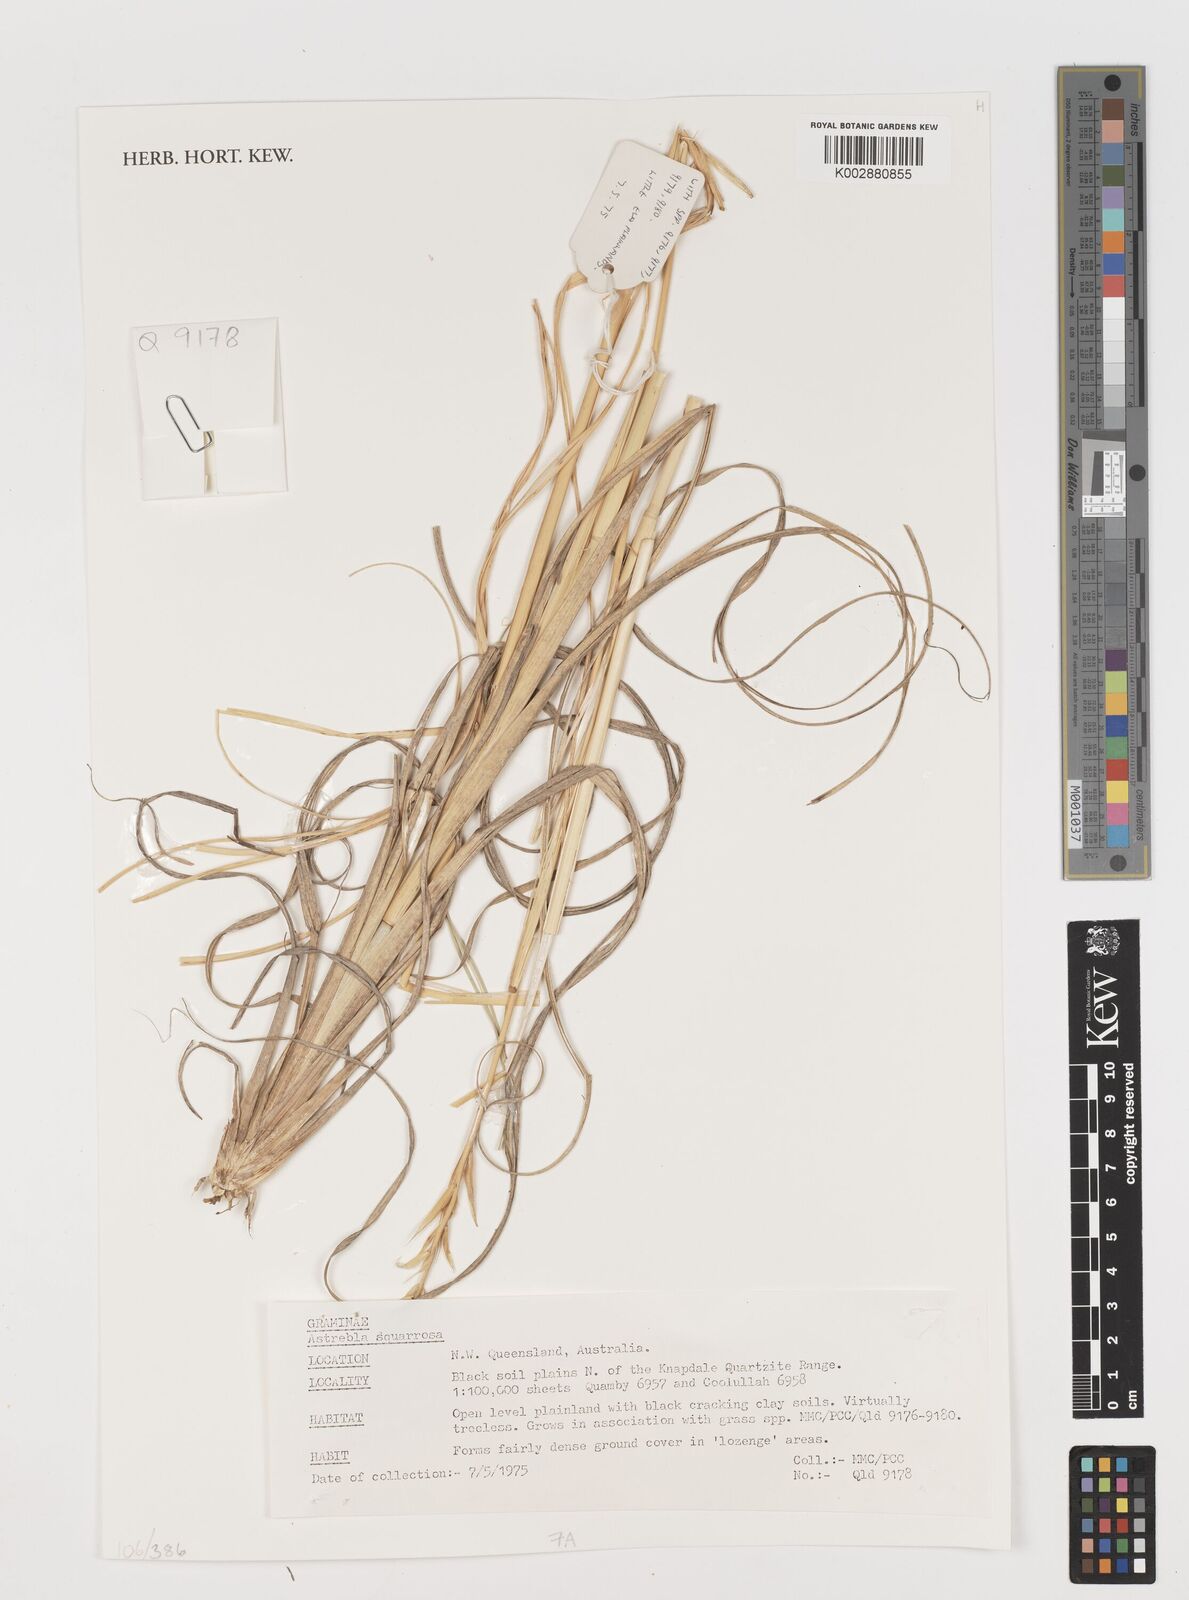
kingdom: Plantae
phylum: Tracheophyta
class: Liliopsida
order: Poales
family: Poaceae
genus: Astrebla
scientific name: Astrebla squarrosa
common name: Wheat-ear mitchell grass
